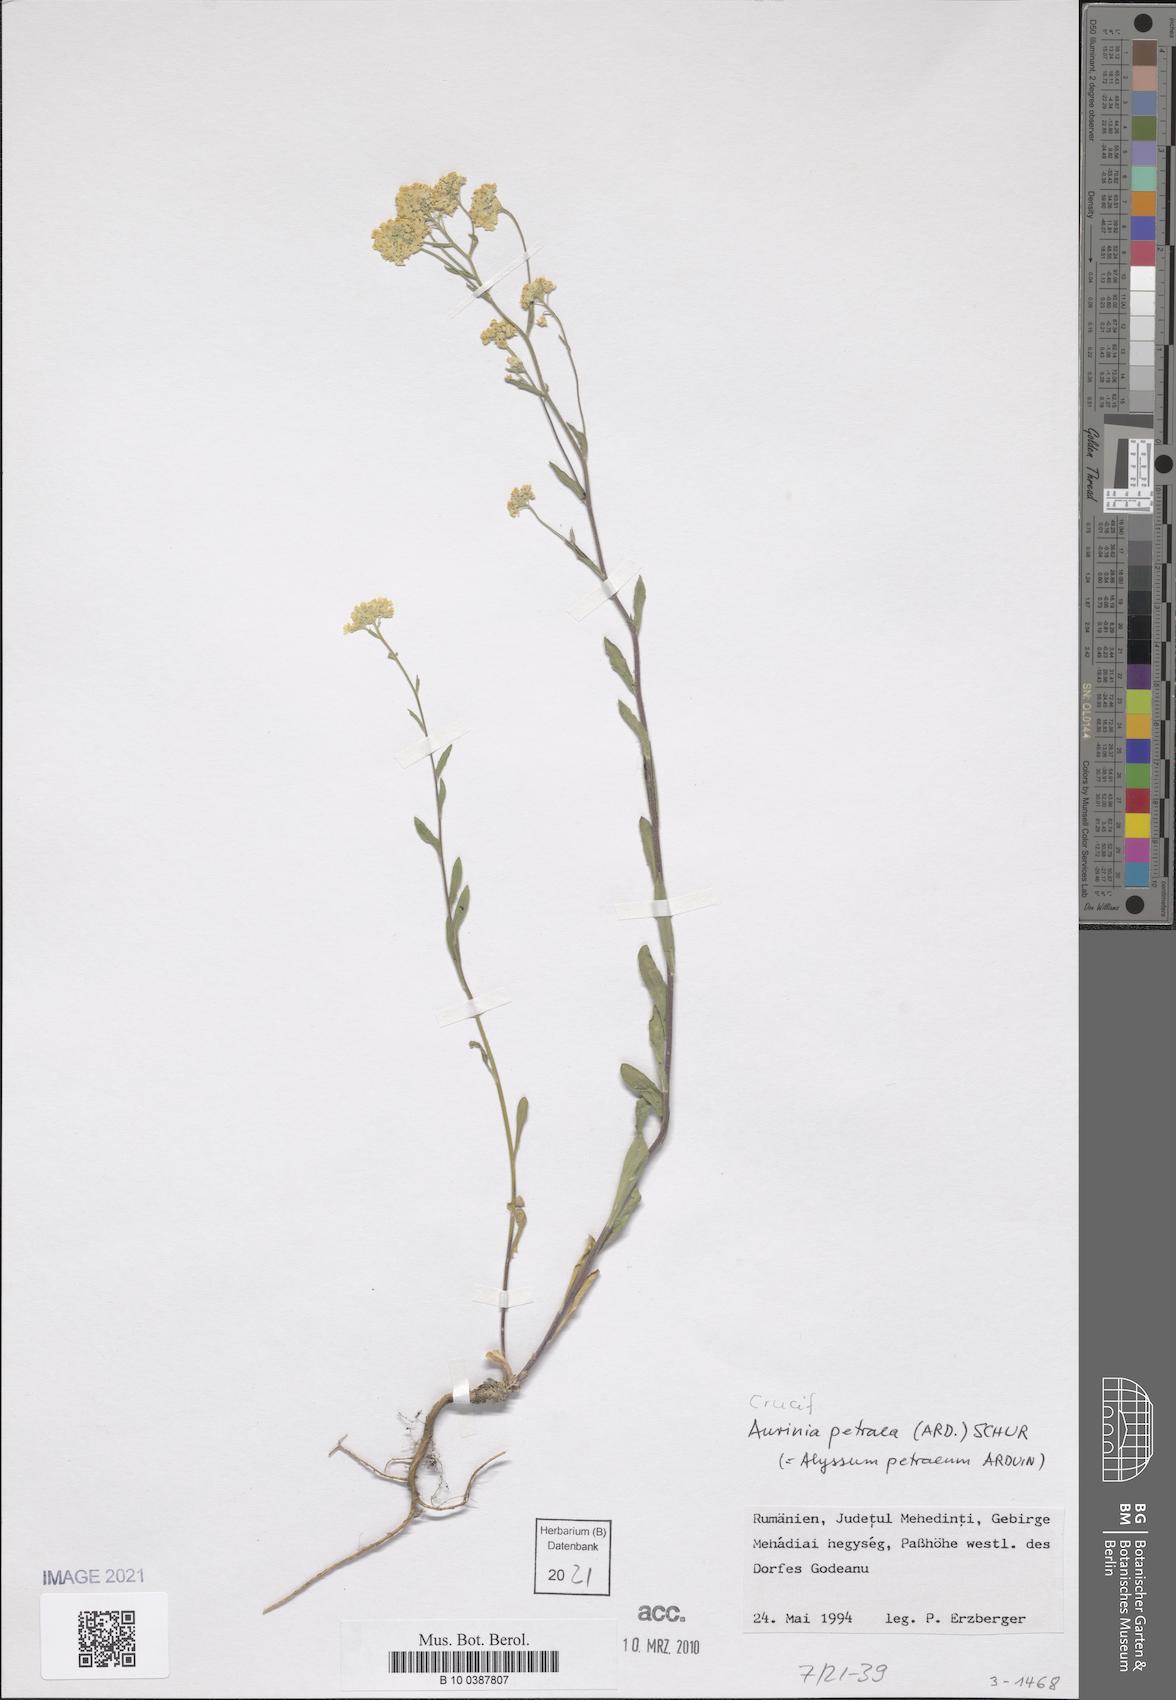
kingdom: Plantae
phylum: Tracheophyta
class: Magnoliopsida
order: Brassicales
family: Brassicaceae
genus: Aurinia
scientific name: Aurinia petraea
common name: Goldentuft
